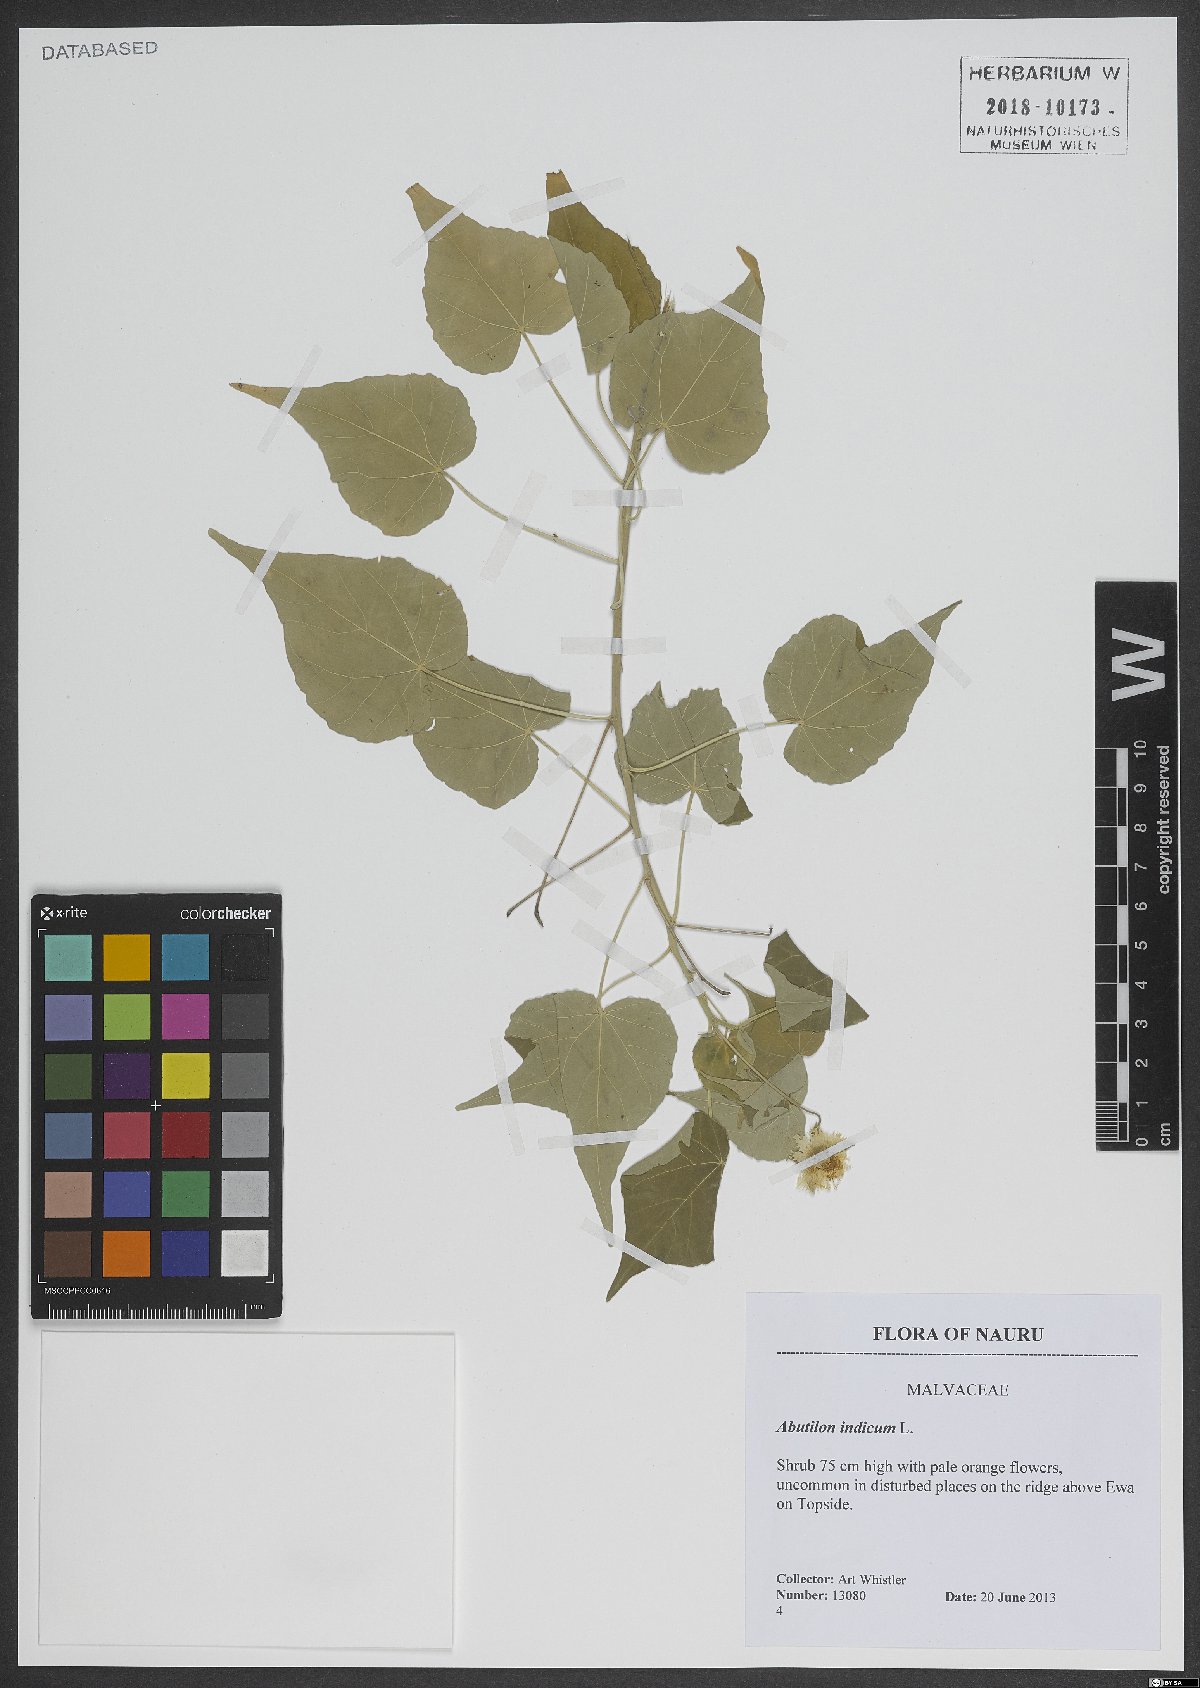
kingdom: Plantae
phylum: Tracheophyta
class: Magnoliopsida
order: Malvales
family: Malvaceae
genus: Abutilon
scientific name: Abutilon indicum
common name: Indian abutilon
